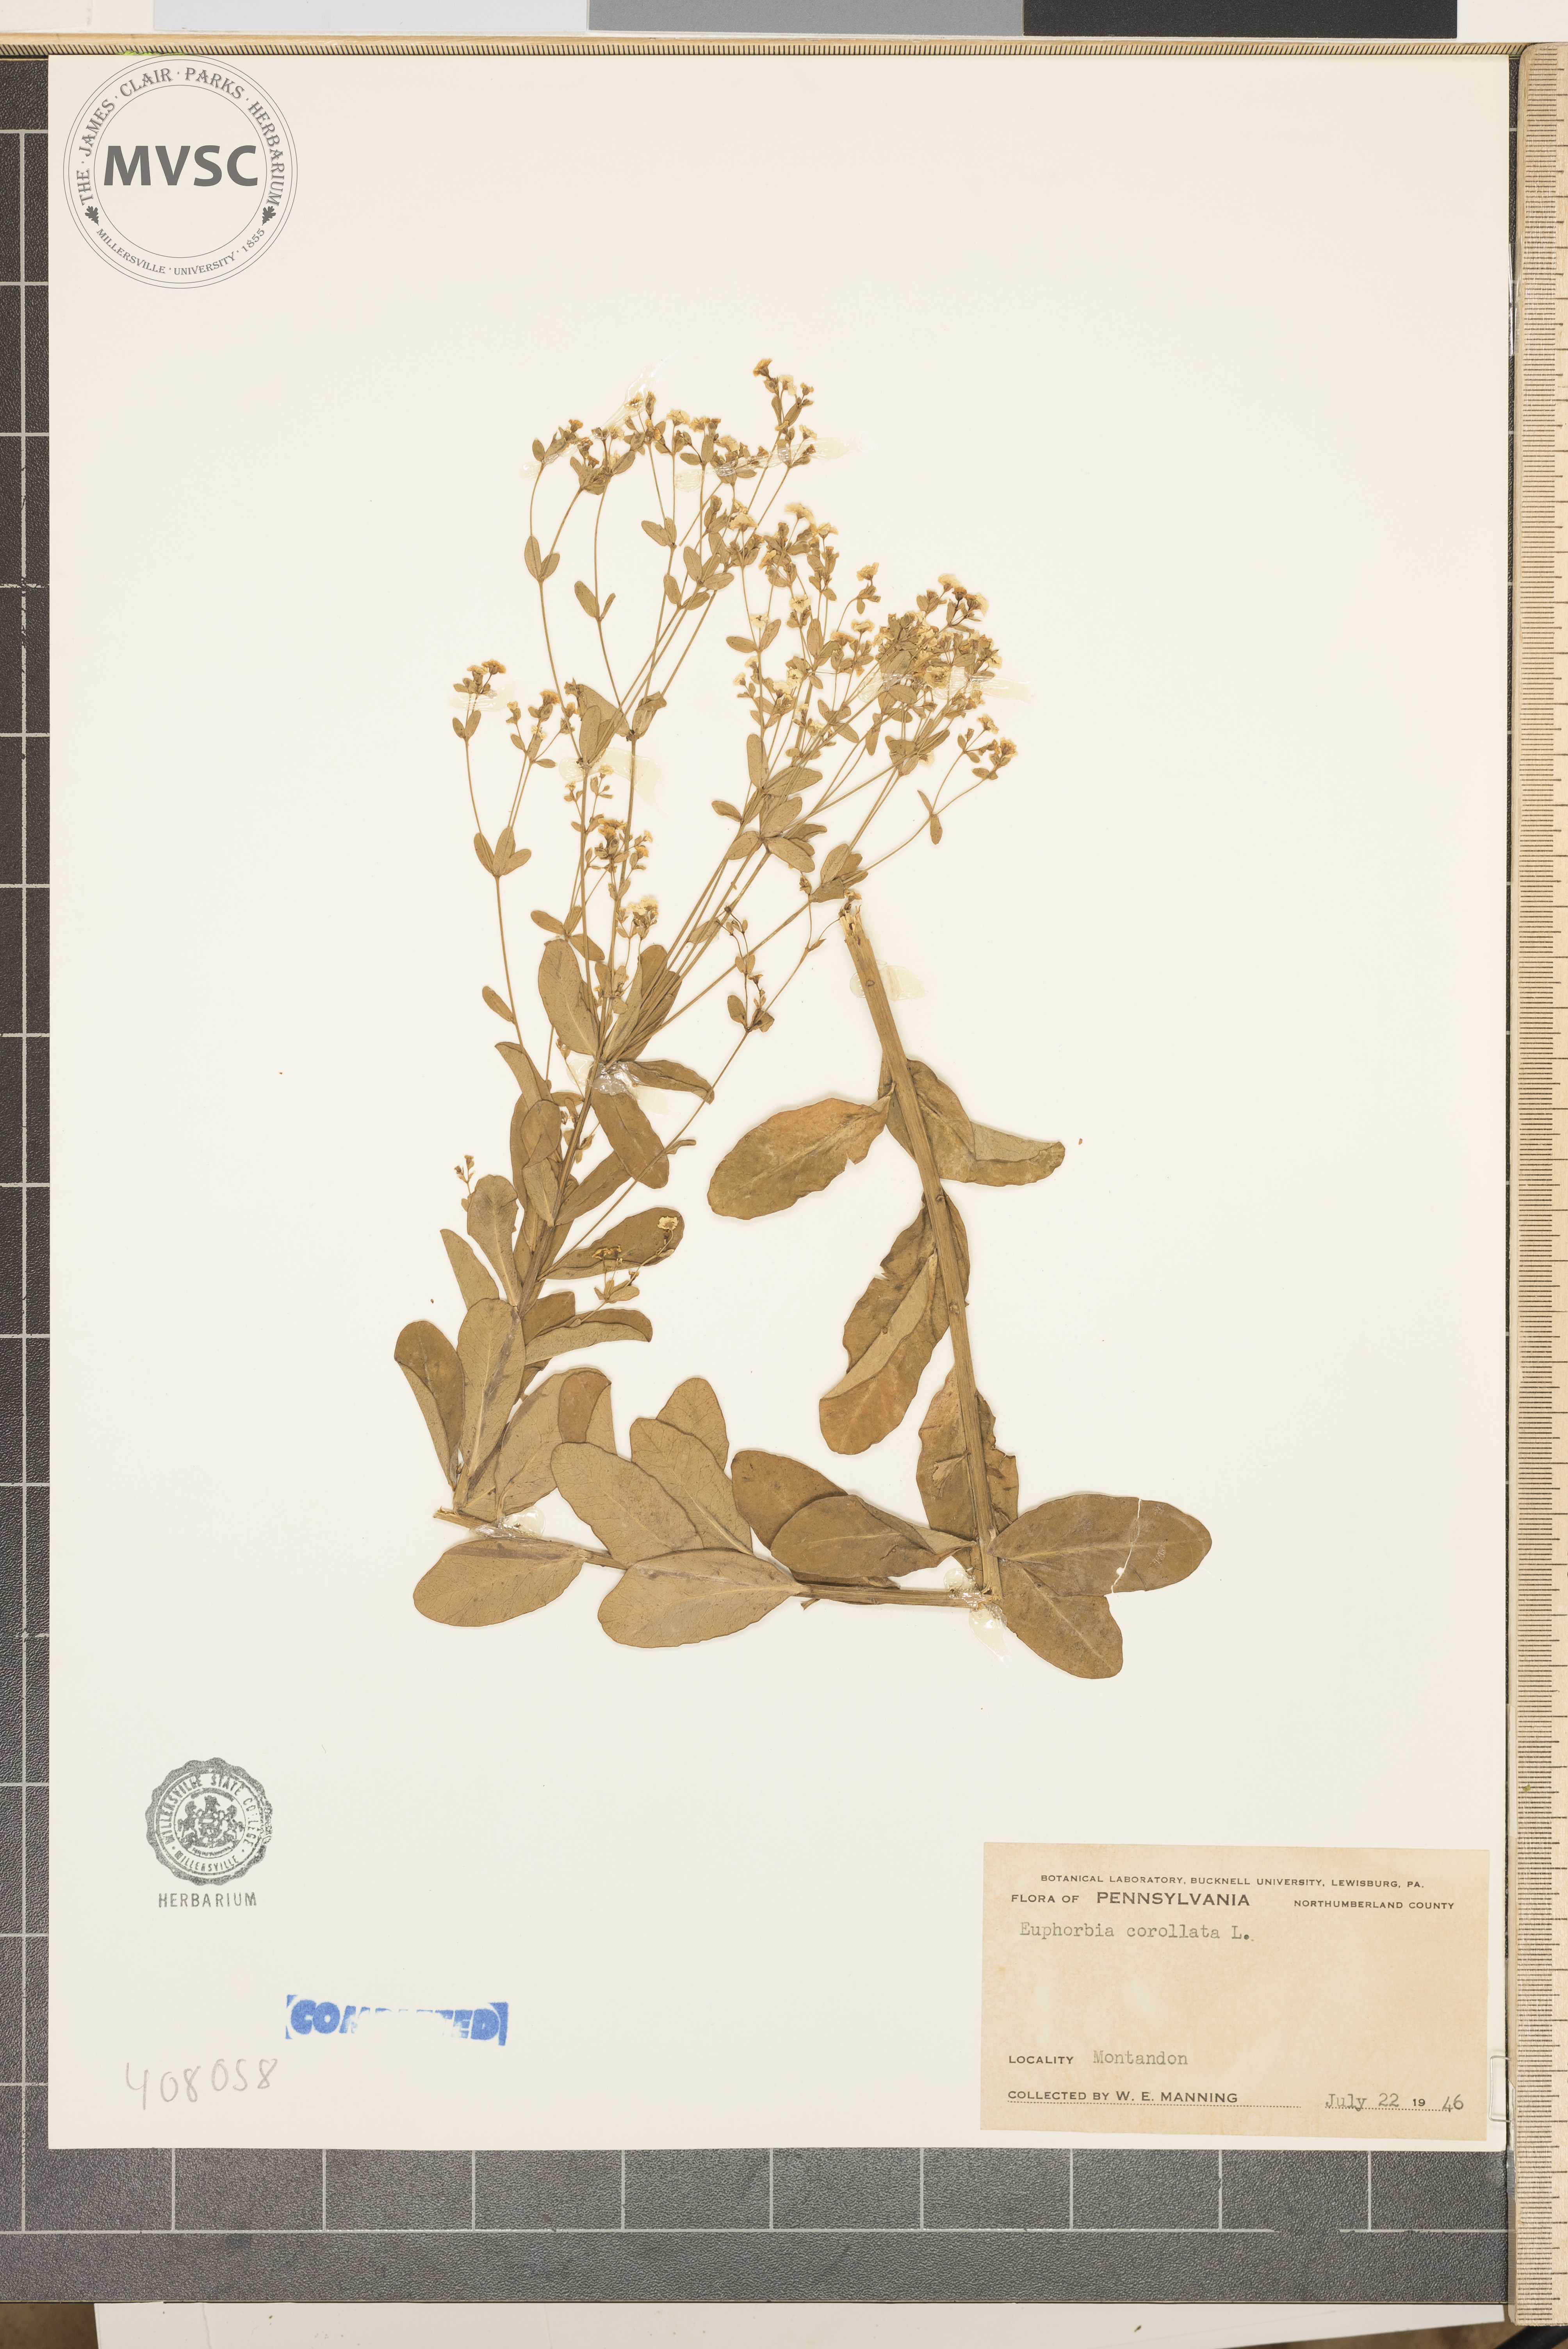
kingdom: Plantae
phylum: Tracheophyta
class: Magnoliopsida
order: Malpighiales
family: Euphorbiaceae
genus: Euphorbia
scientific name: Euphorbia corollata
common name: Flowering Spurge
